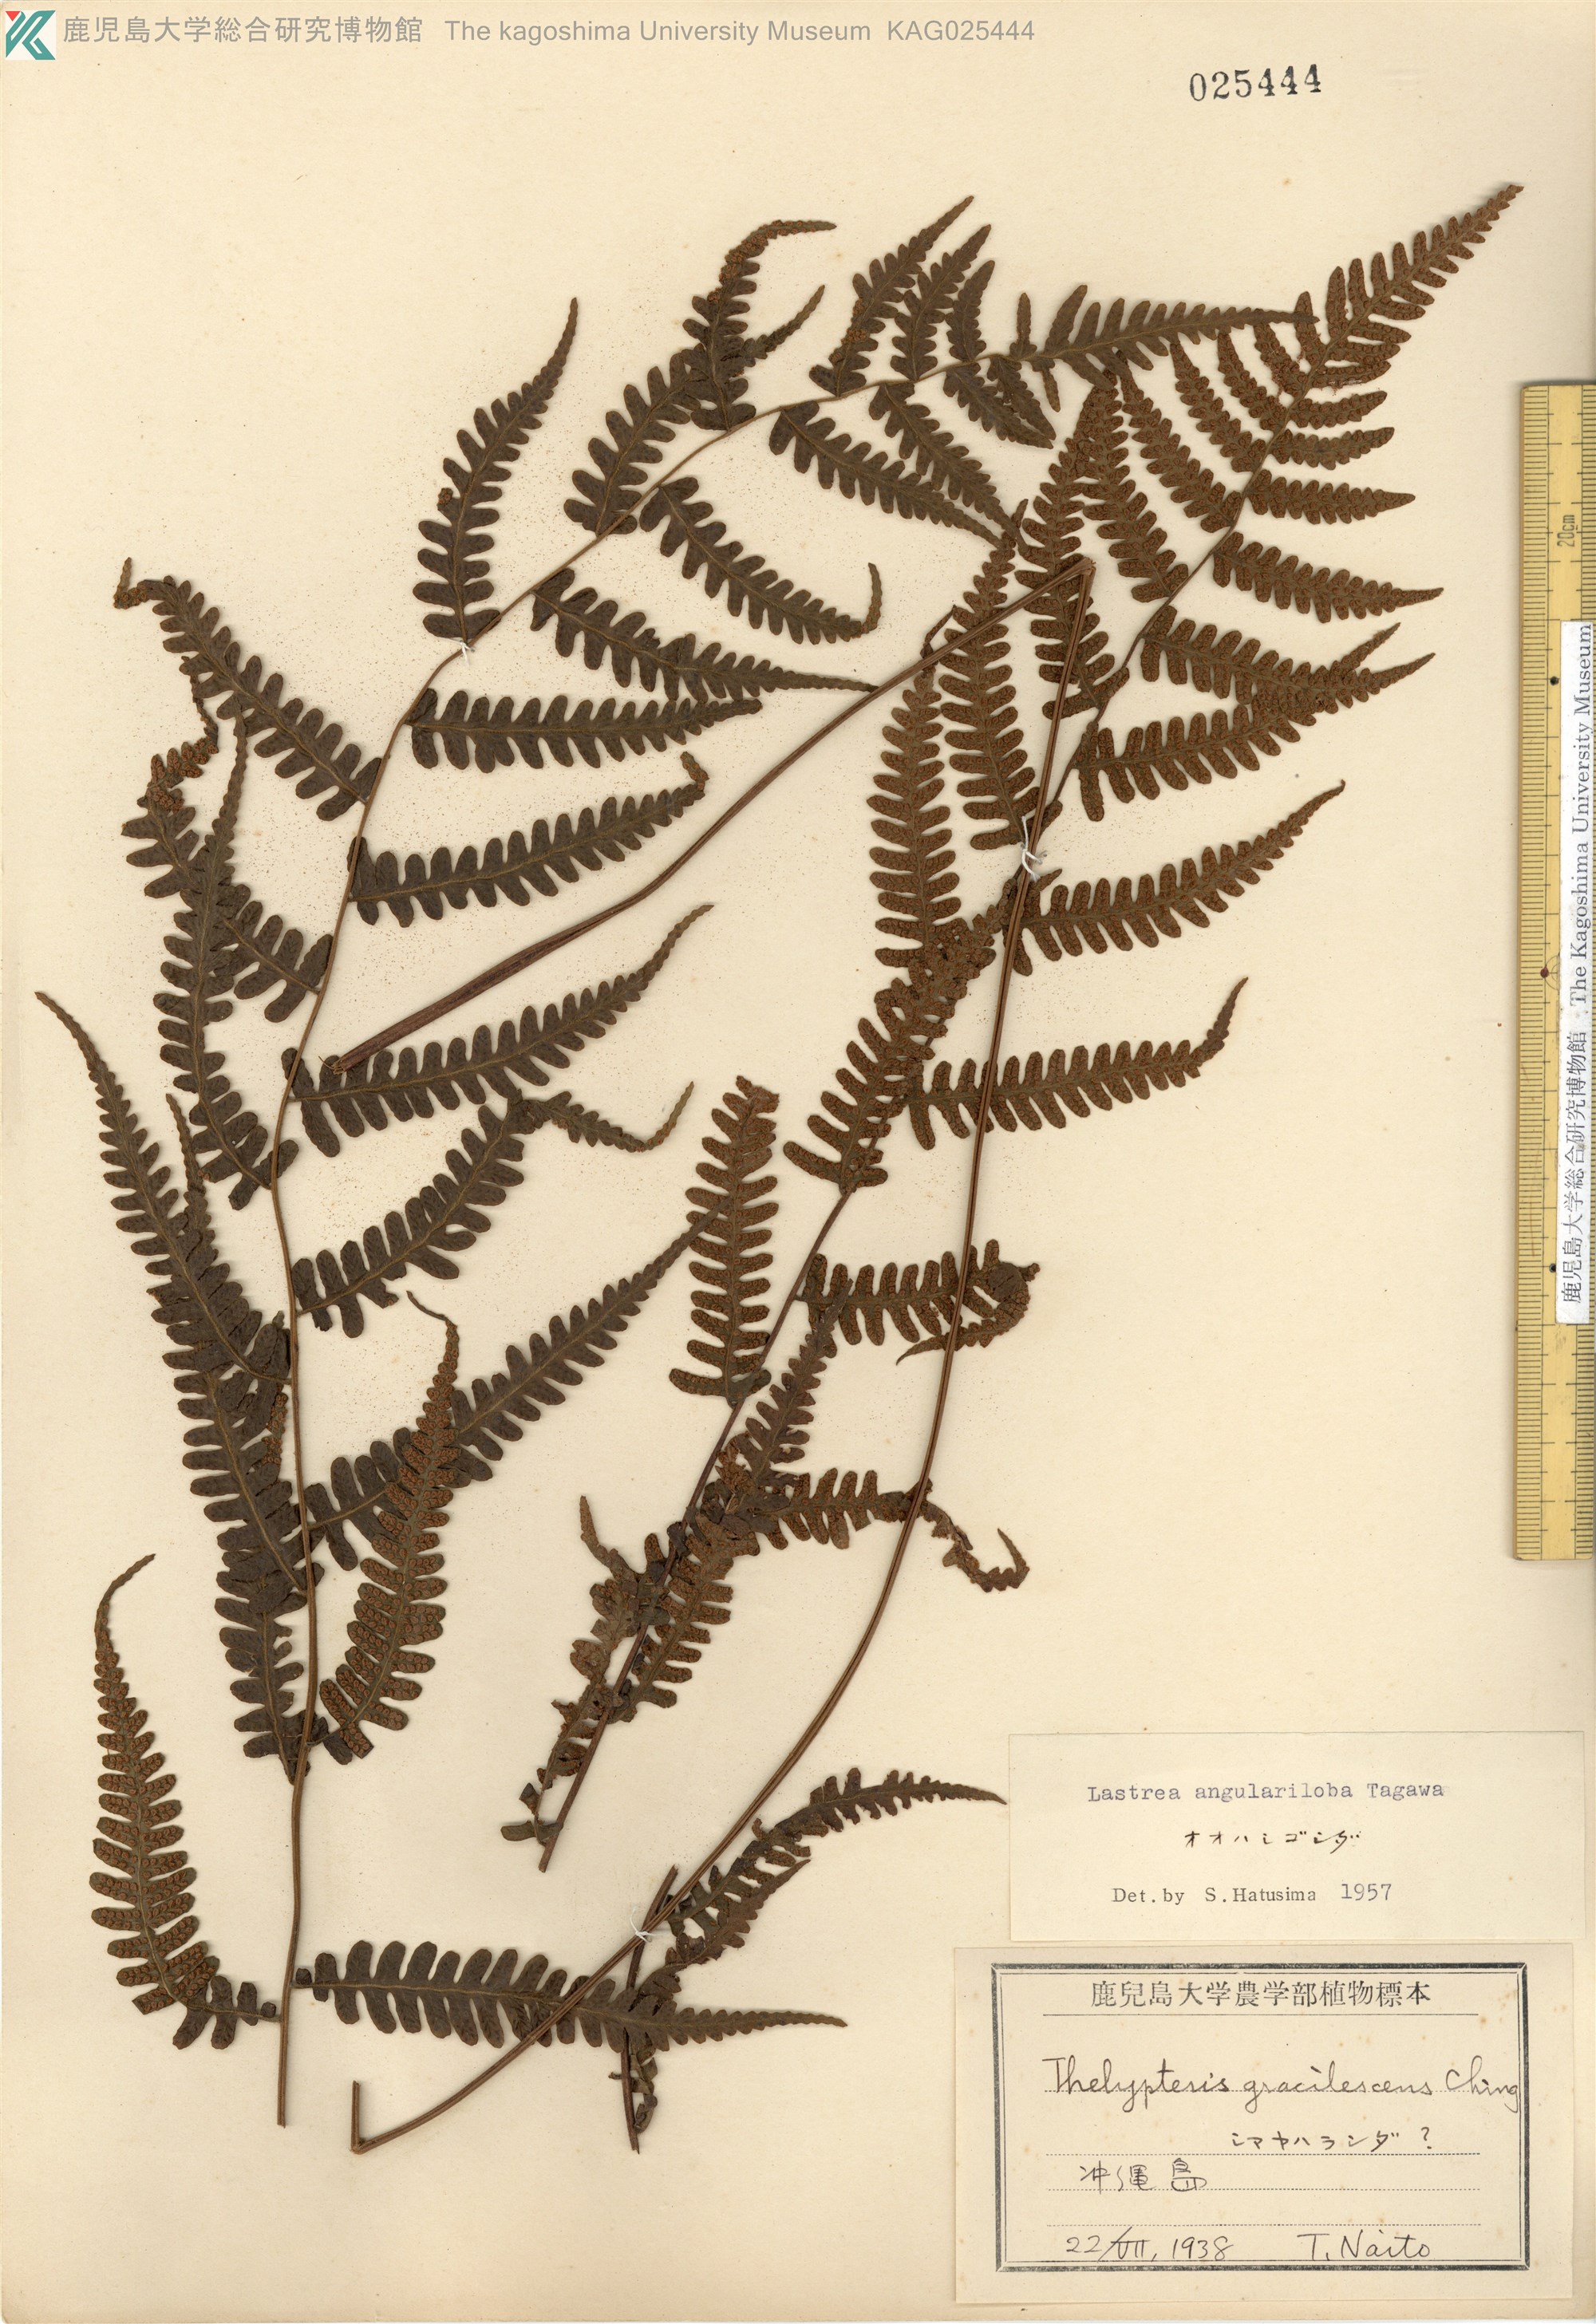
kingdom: Plantae
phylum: Tracheophyta
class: Polypodiopsida
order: Polypodiales
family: Thelypteridaceae
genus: Coryphopteris
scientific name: Coryphopteris hirsutipes
